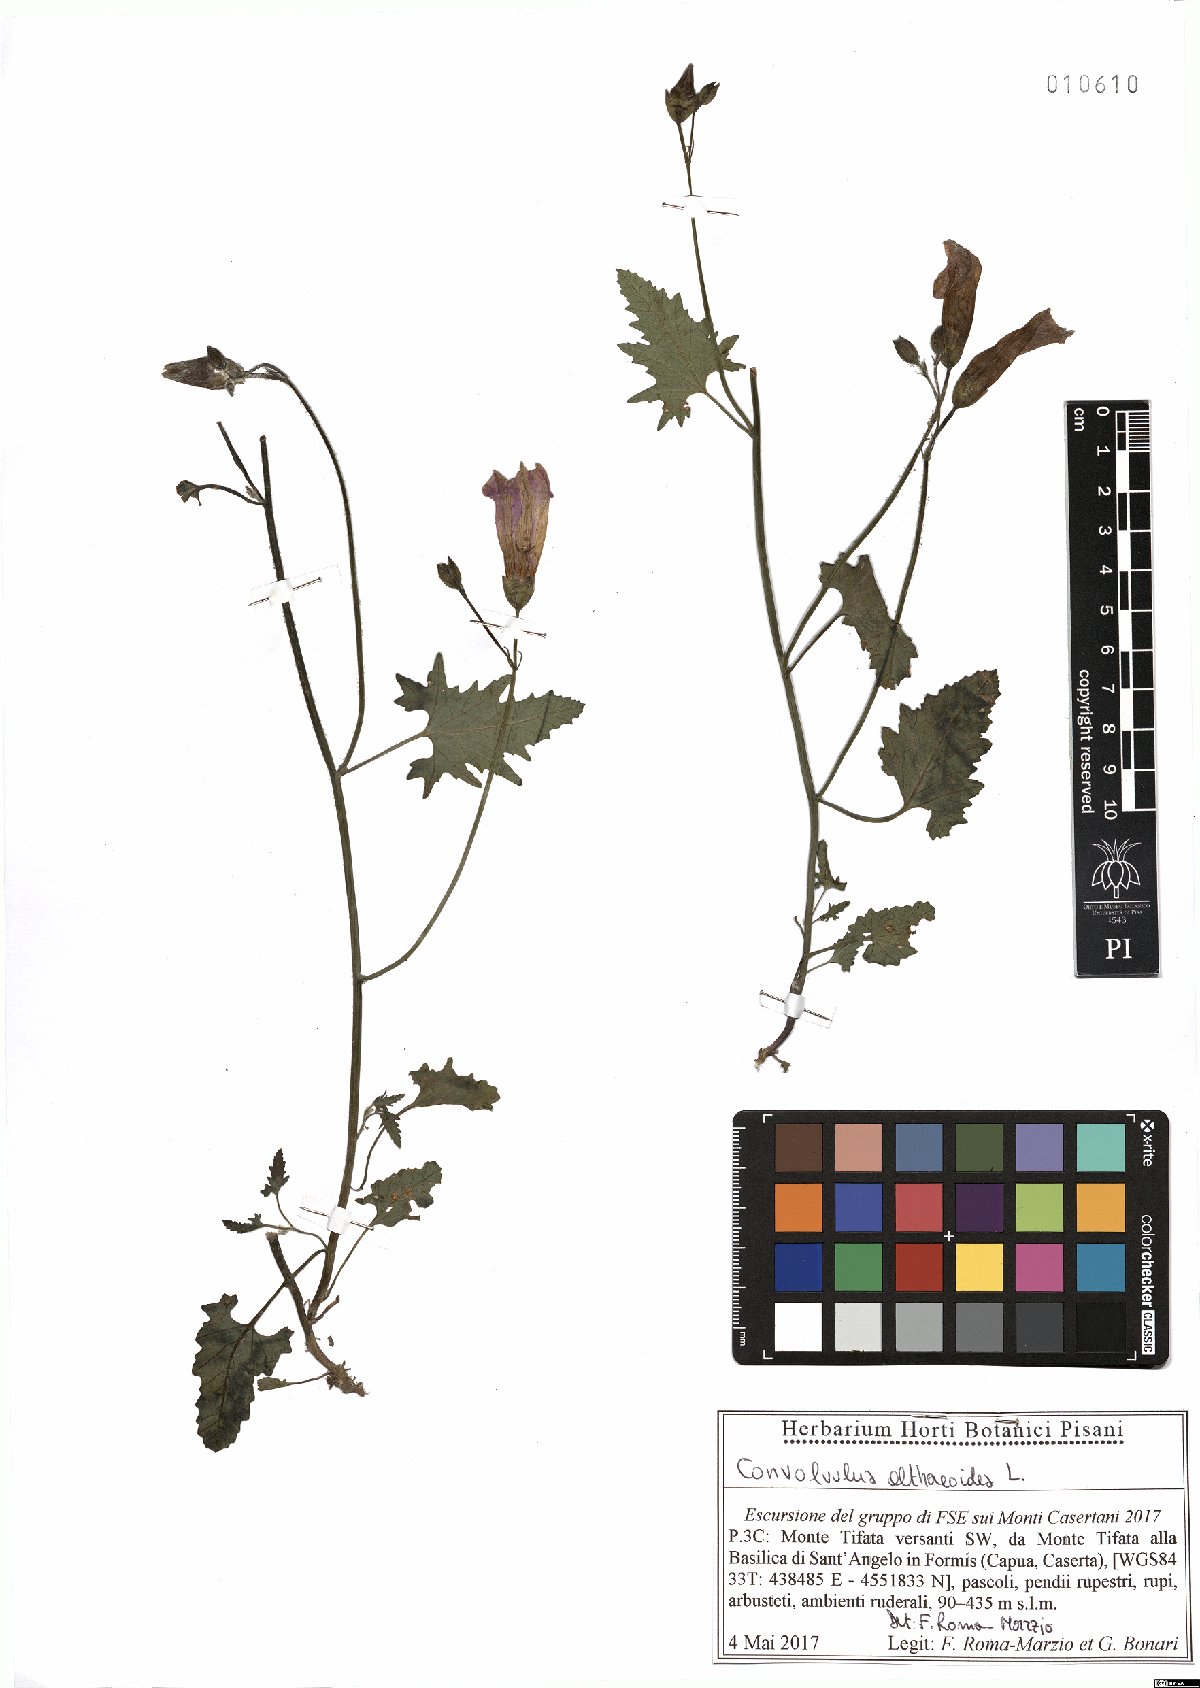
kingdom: Plantae
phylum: Tracheophyta
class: Magnoliopsida
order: Solanales
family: Convolvulaceae
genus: Convolvulus
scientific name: Convolvulus althaeoides
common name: Mallow bindweed
